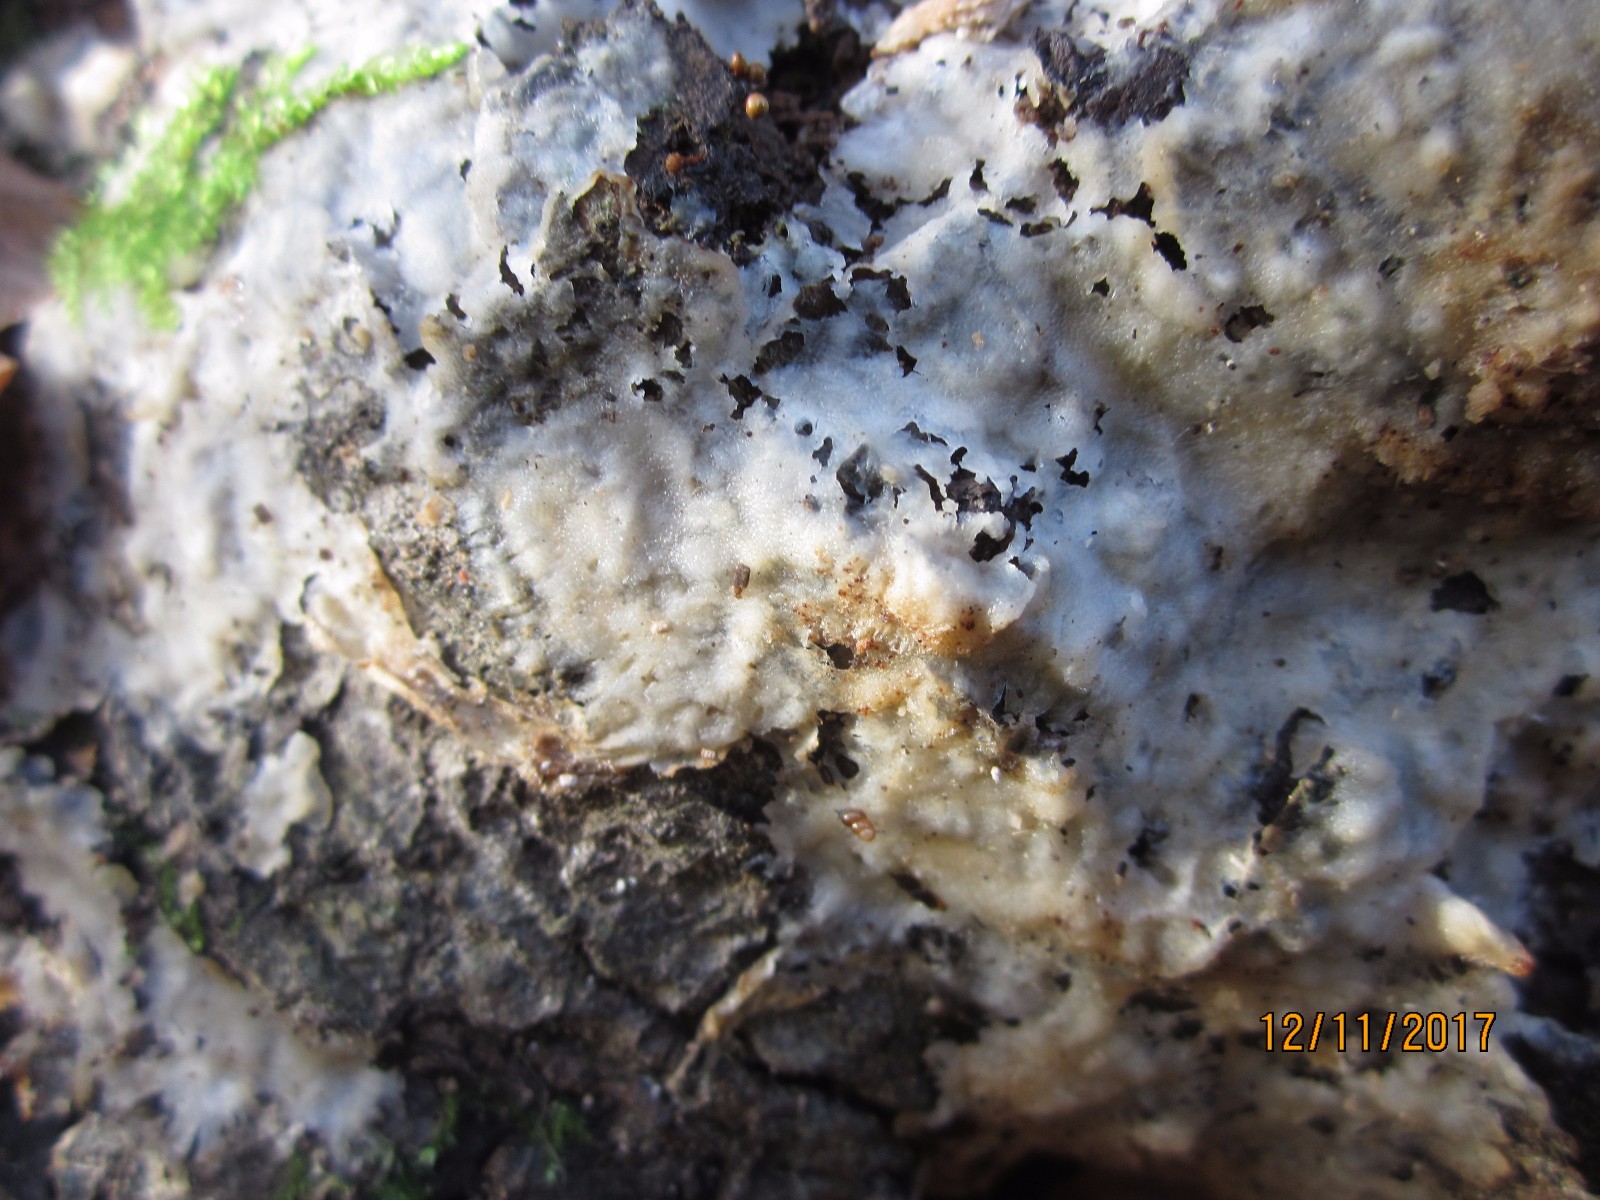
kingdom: Fungi
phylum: Basidiomycota
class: Agaricomycetes
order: Polyporales
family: Meruliaceae
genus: Physisporinus
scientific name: Physisporinus vitreus
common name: mastesvamp
